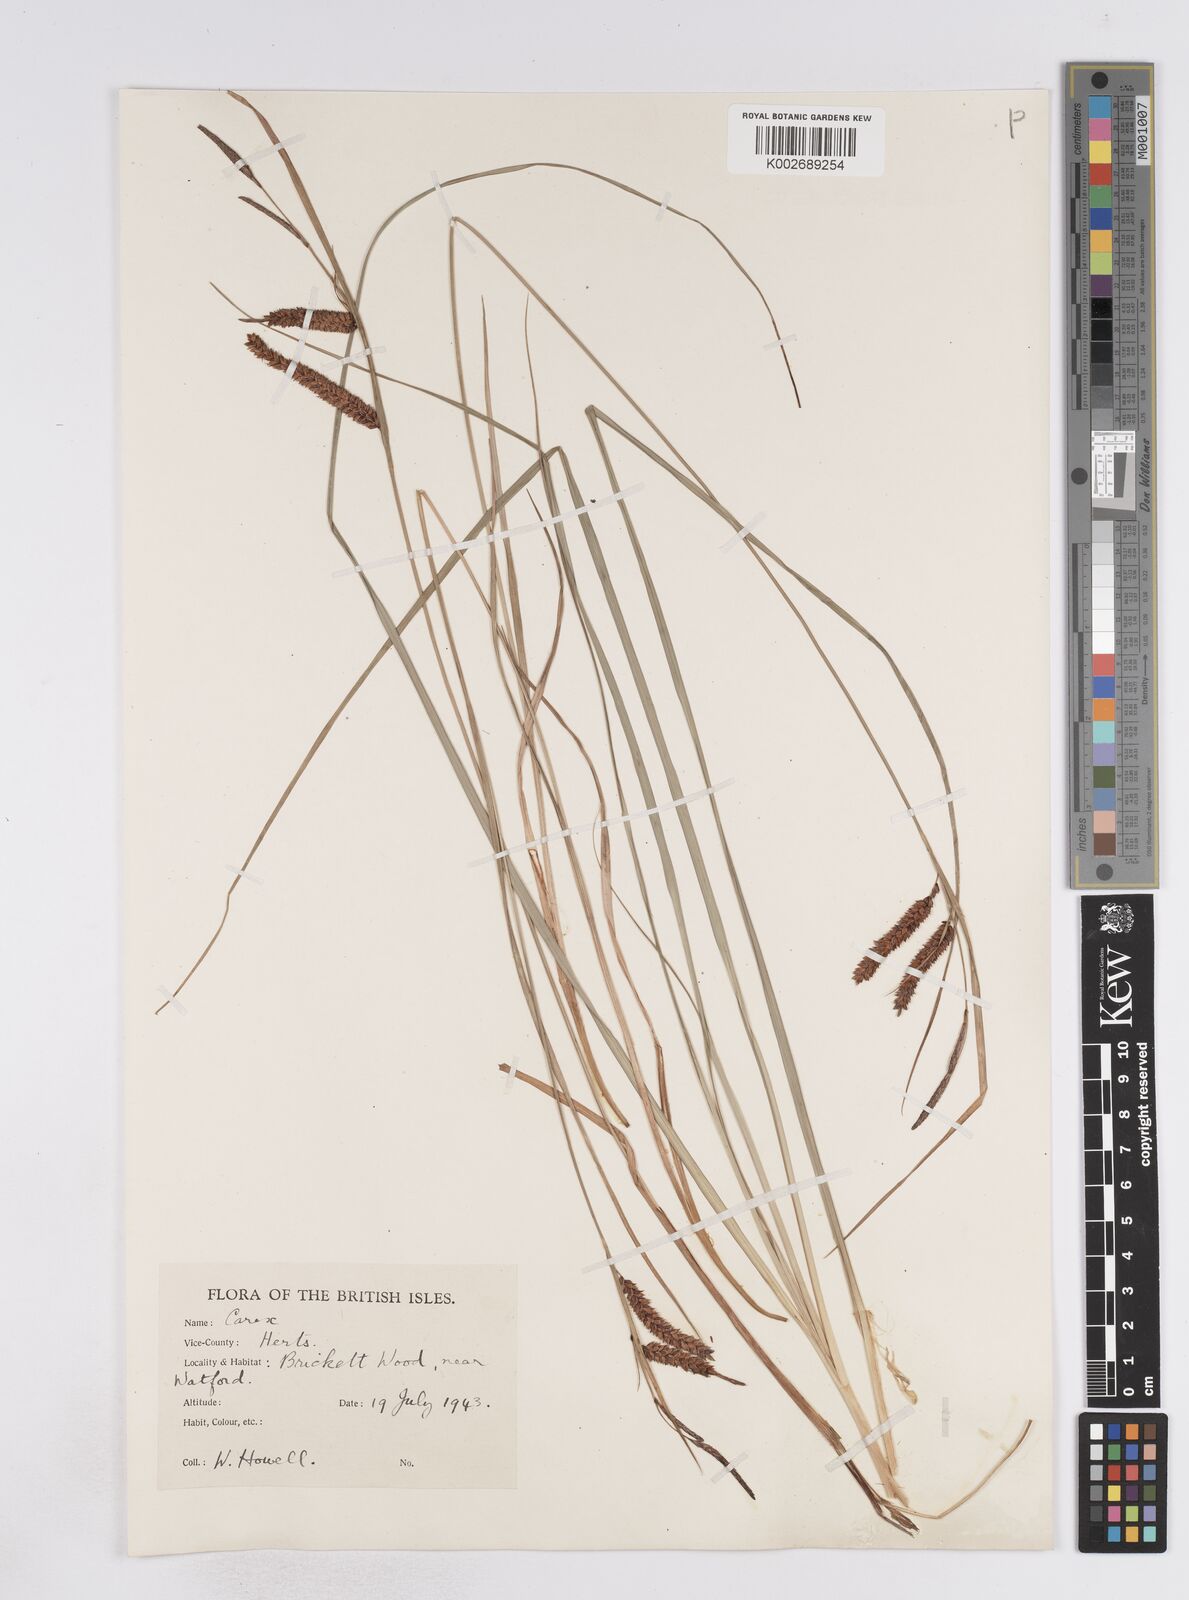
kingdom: Plantae
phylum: Tracheophyta
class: Liliopsida
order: Poales
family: Cyperaceae
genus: Carex
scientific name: Carex flacca
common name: Glaucous sedge
